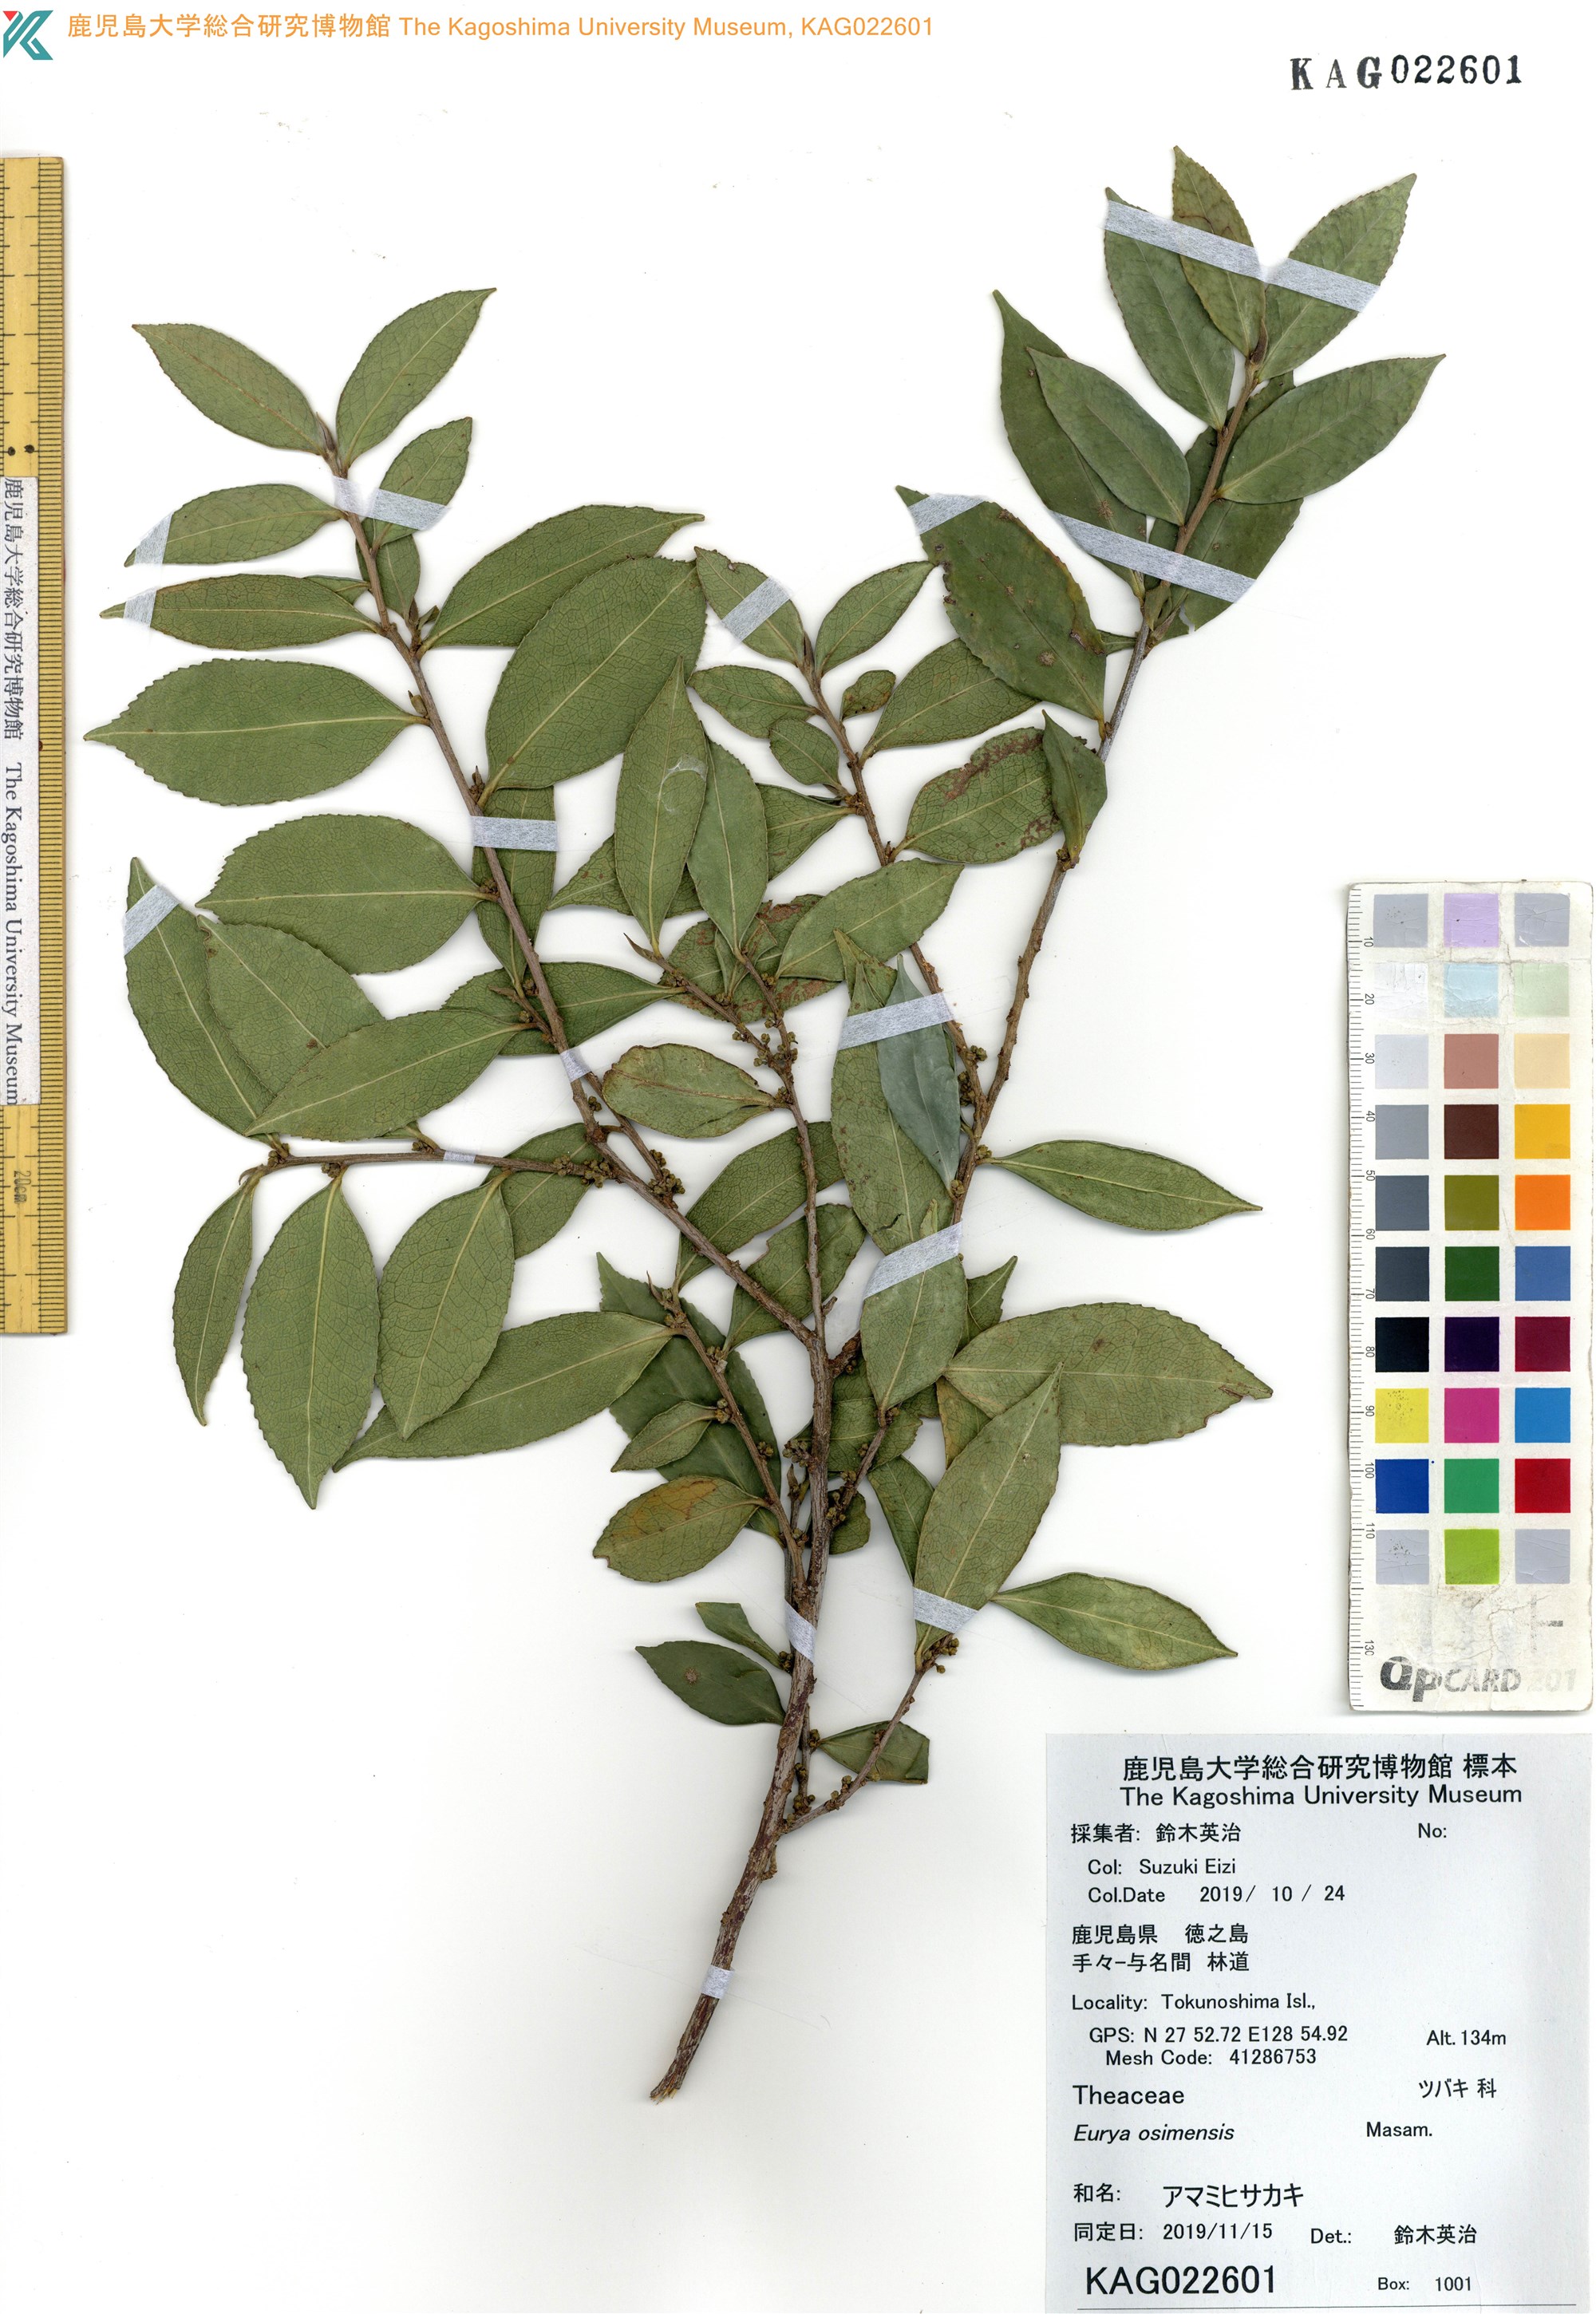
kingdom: Plantae
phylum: Tracheophyta
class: Magnoliopsida
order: Ericales
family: Pentaphylacaceae
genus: Eurya
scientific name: Eurya osimensis
